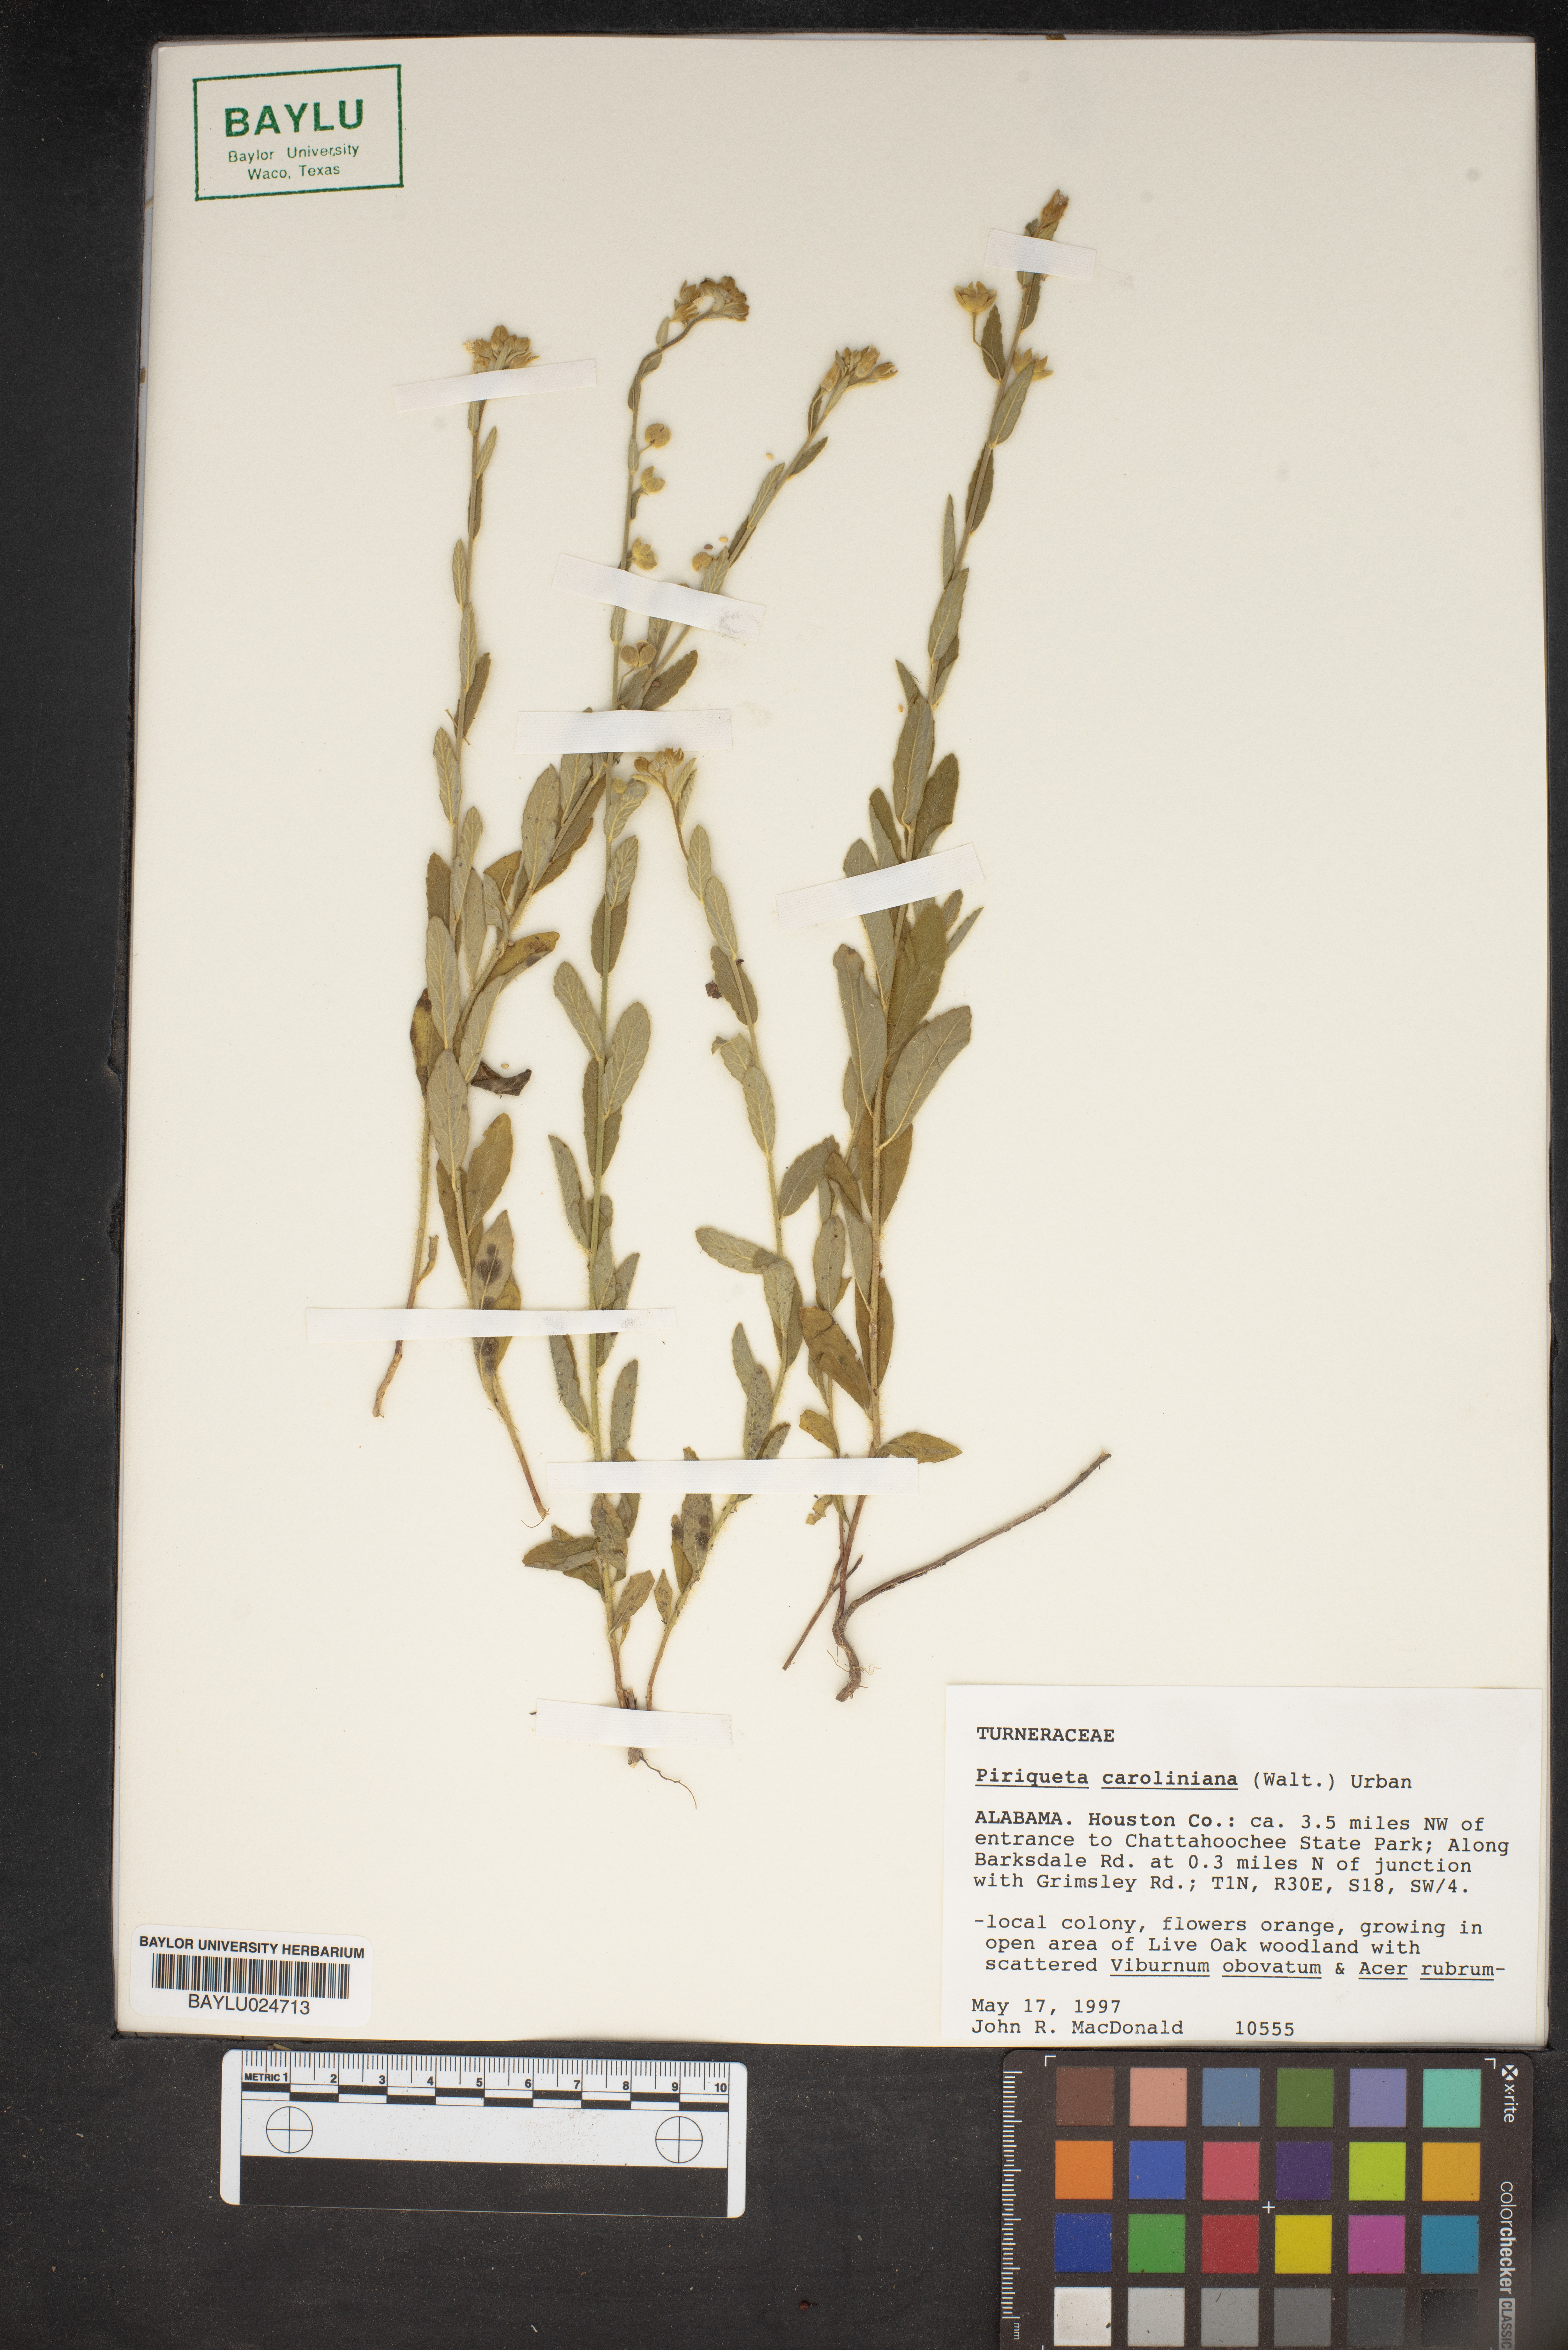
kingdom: Plantae
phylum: Tracheophyta
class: Magnoliopsida
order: Malpighiales
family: Turneraceae
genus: Piriqueta
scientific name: Piriqueta cistoides
